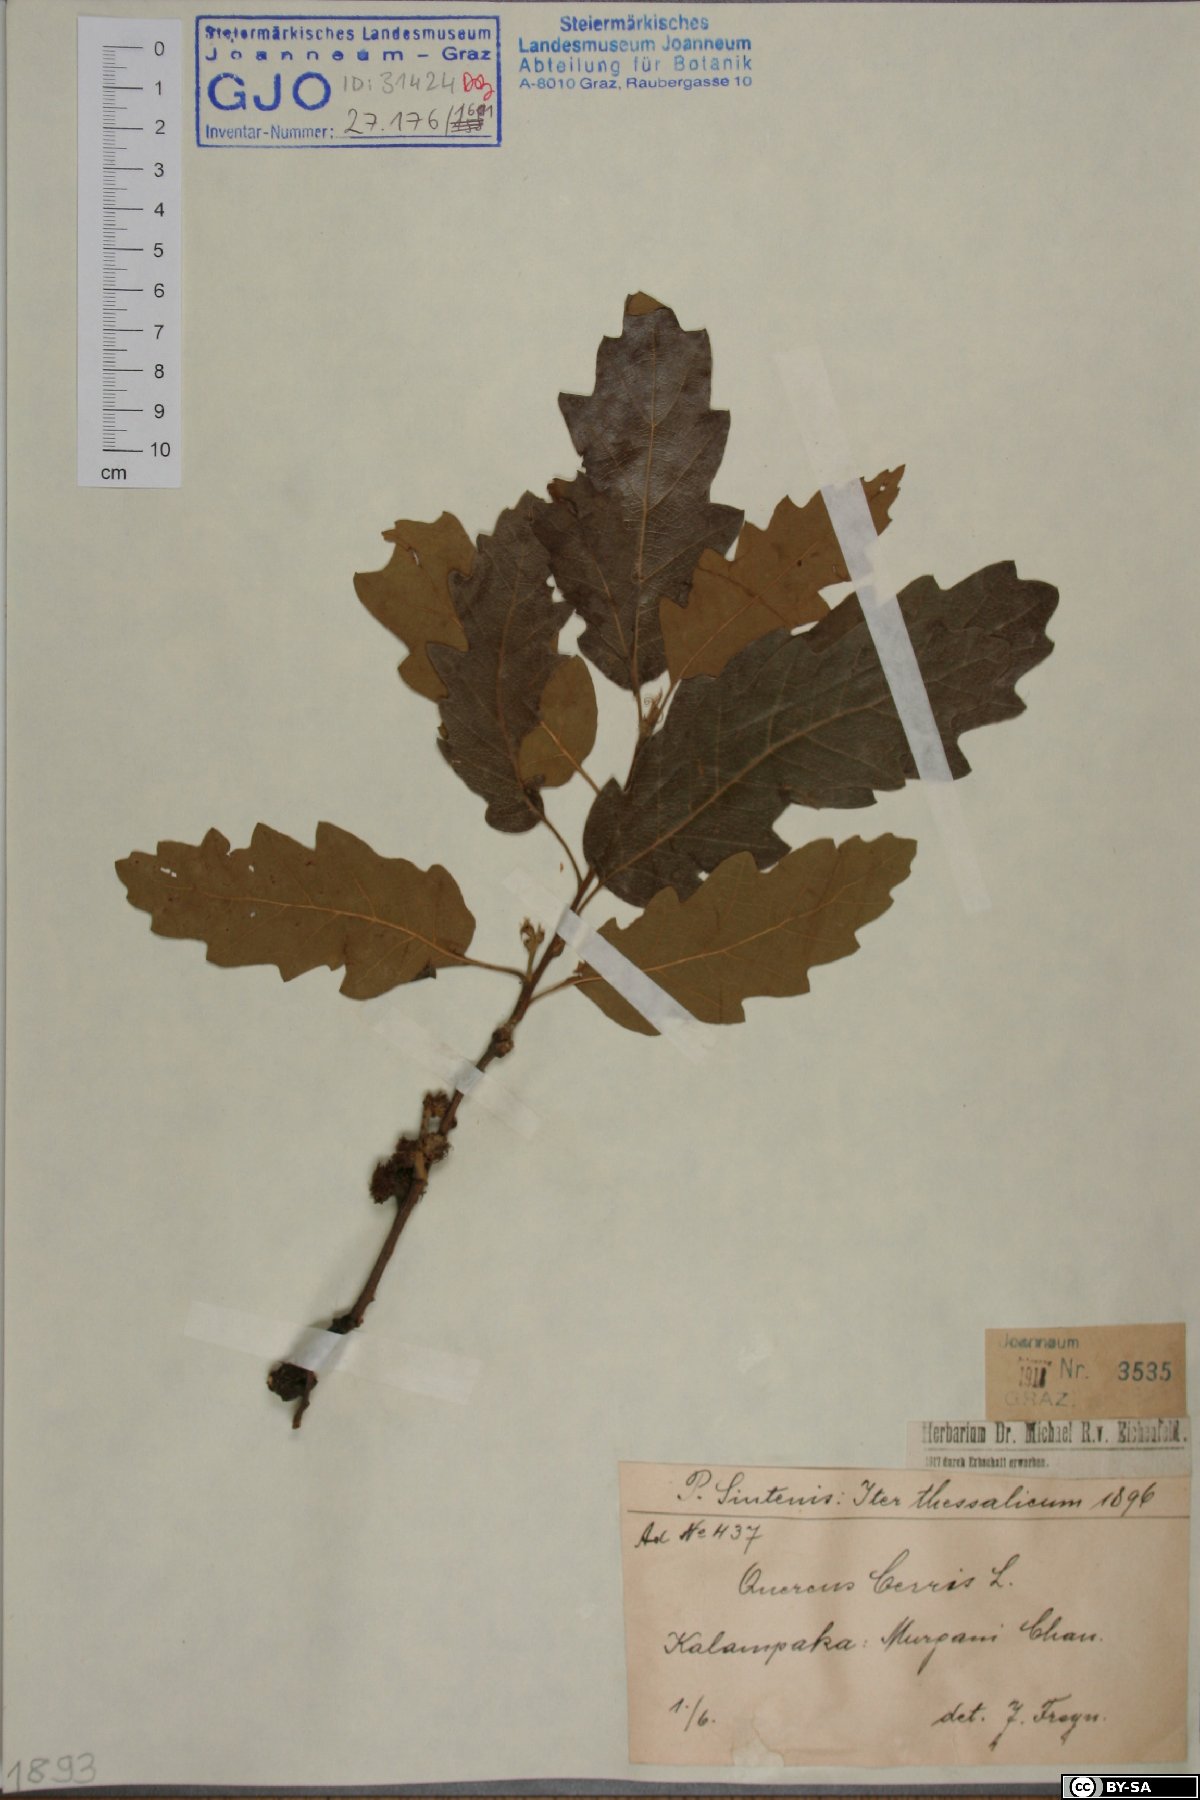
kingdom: Plantae
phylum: Tracheophyta
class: Magnoliopsida
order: Fagales
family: Fagaceae
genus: Quercus
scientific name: Quercus cerris
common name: Turkey oak
